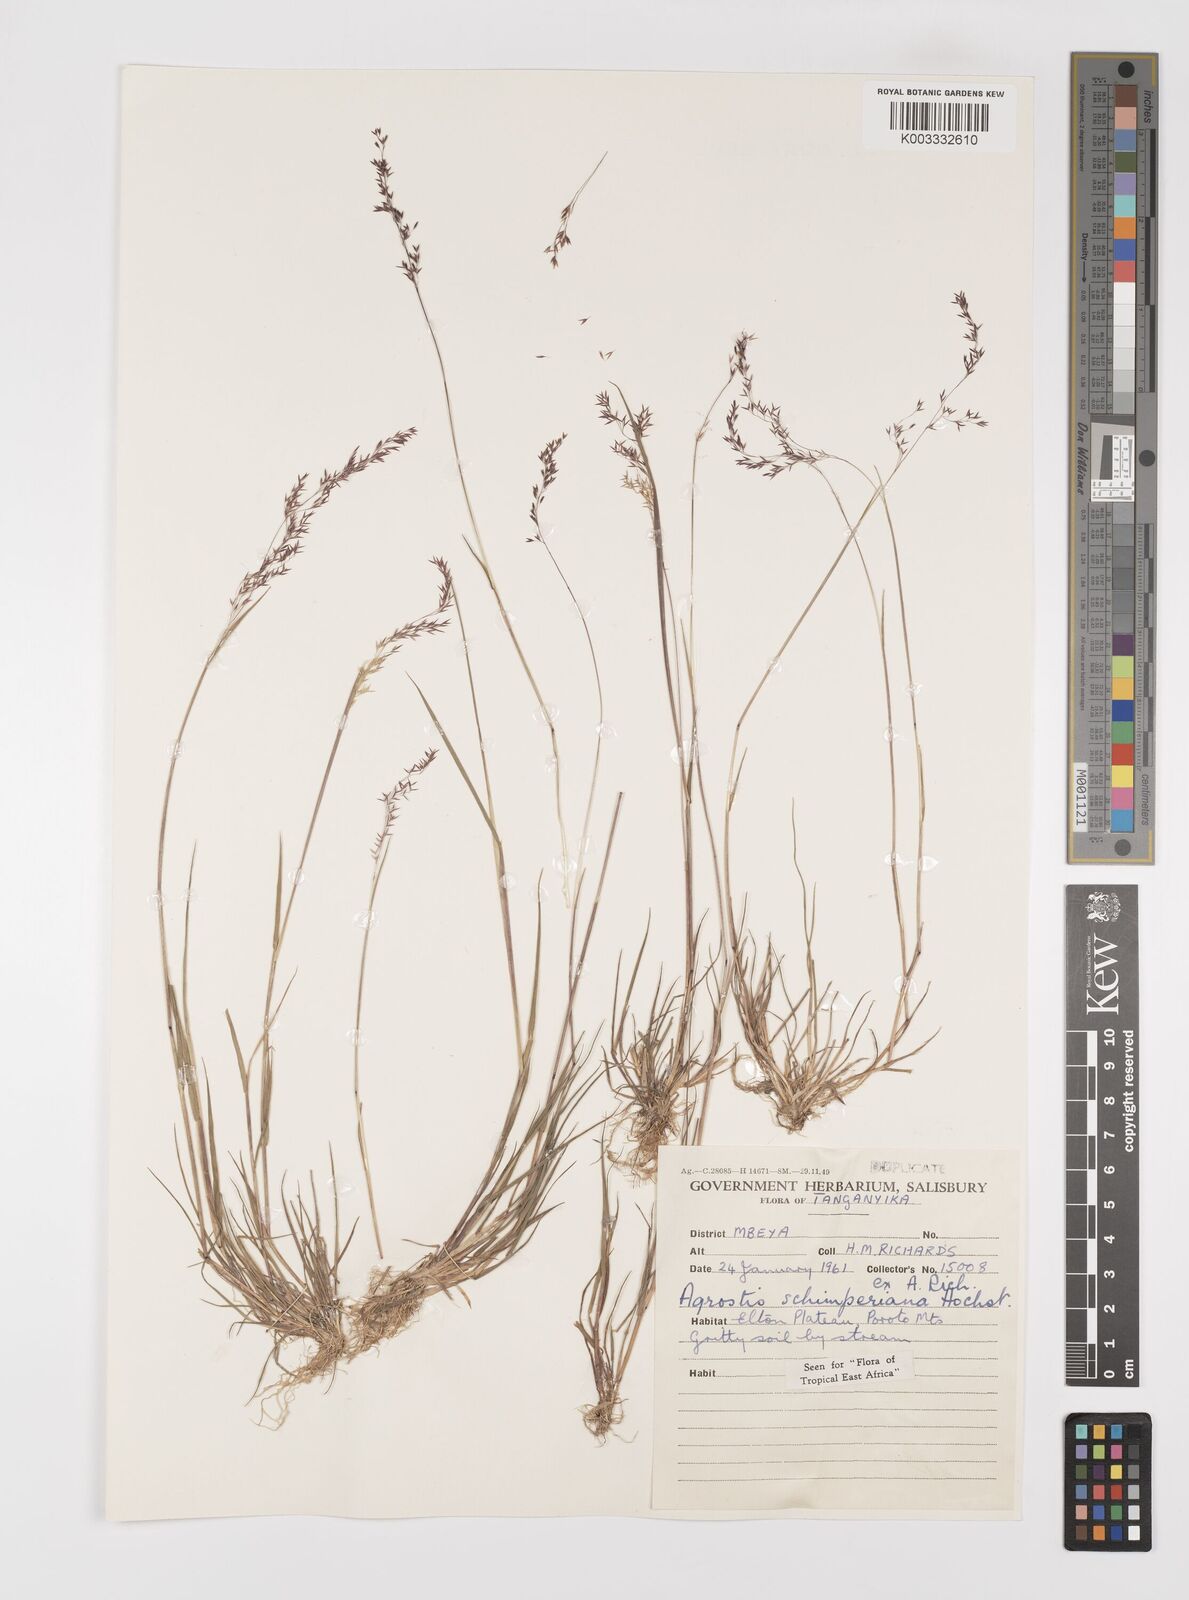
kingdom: Plantae
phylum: Tracheophyta
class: Liliopsida
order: Poales
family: Poaceae
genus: Polypogon
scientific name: Polypogon schimperianus
